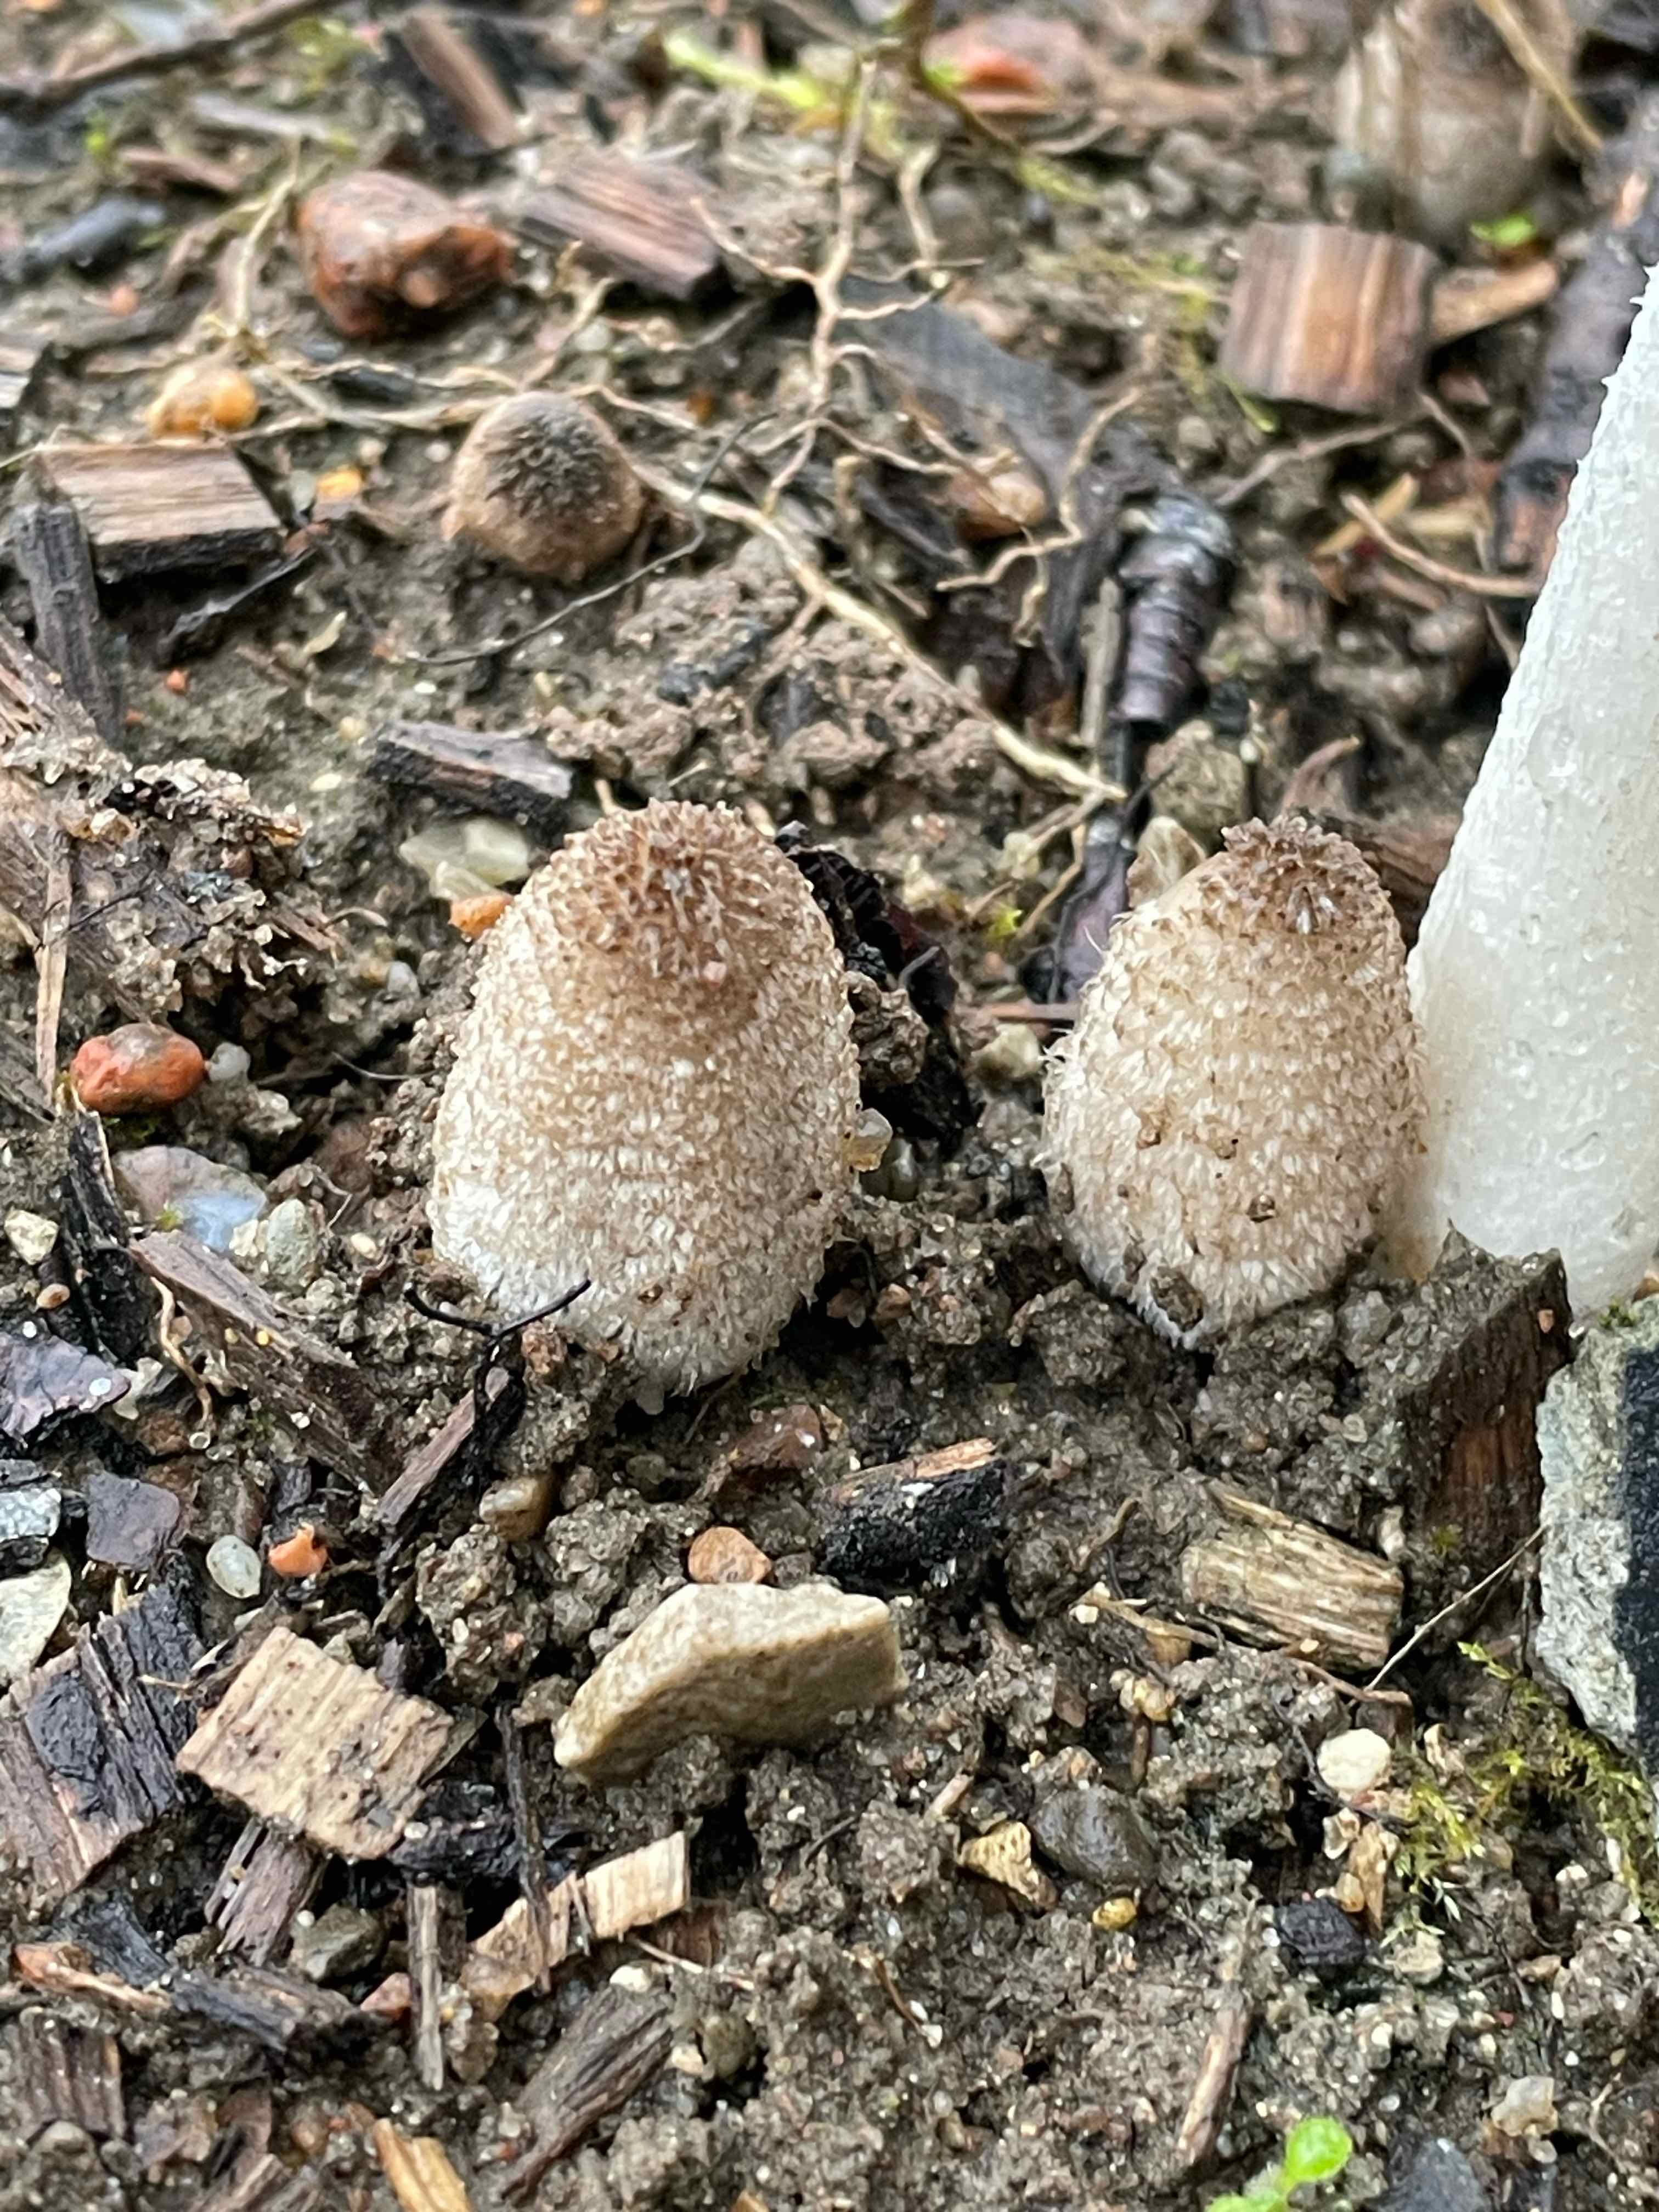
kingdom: Fungi
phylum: Basidiomycota
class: Agaricomycetes
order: Agaricales
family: Psathyrellaceae
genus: Coprinopsis
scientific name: Coprinopsis
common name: blækhat
